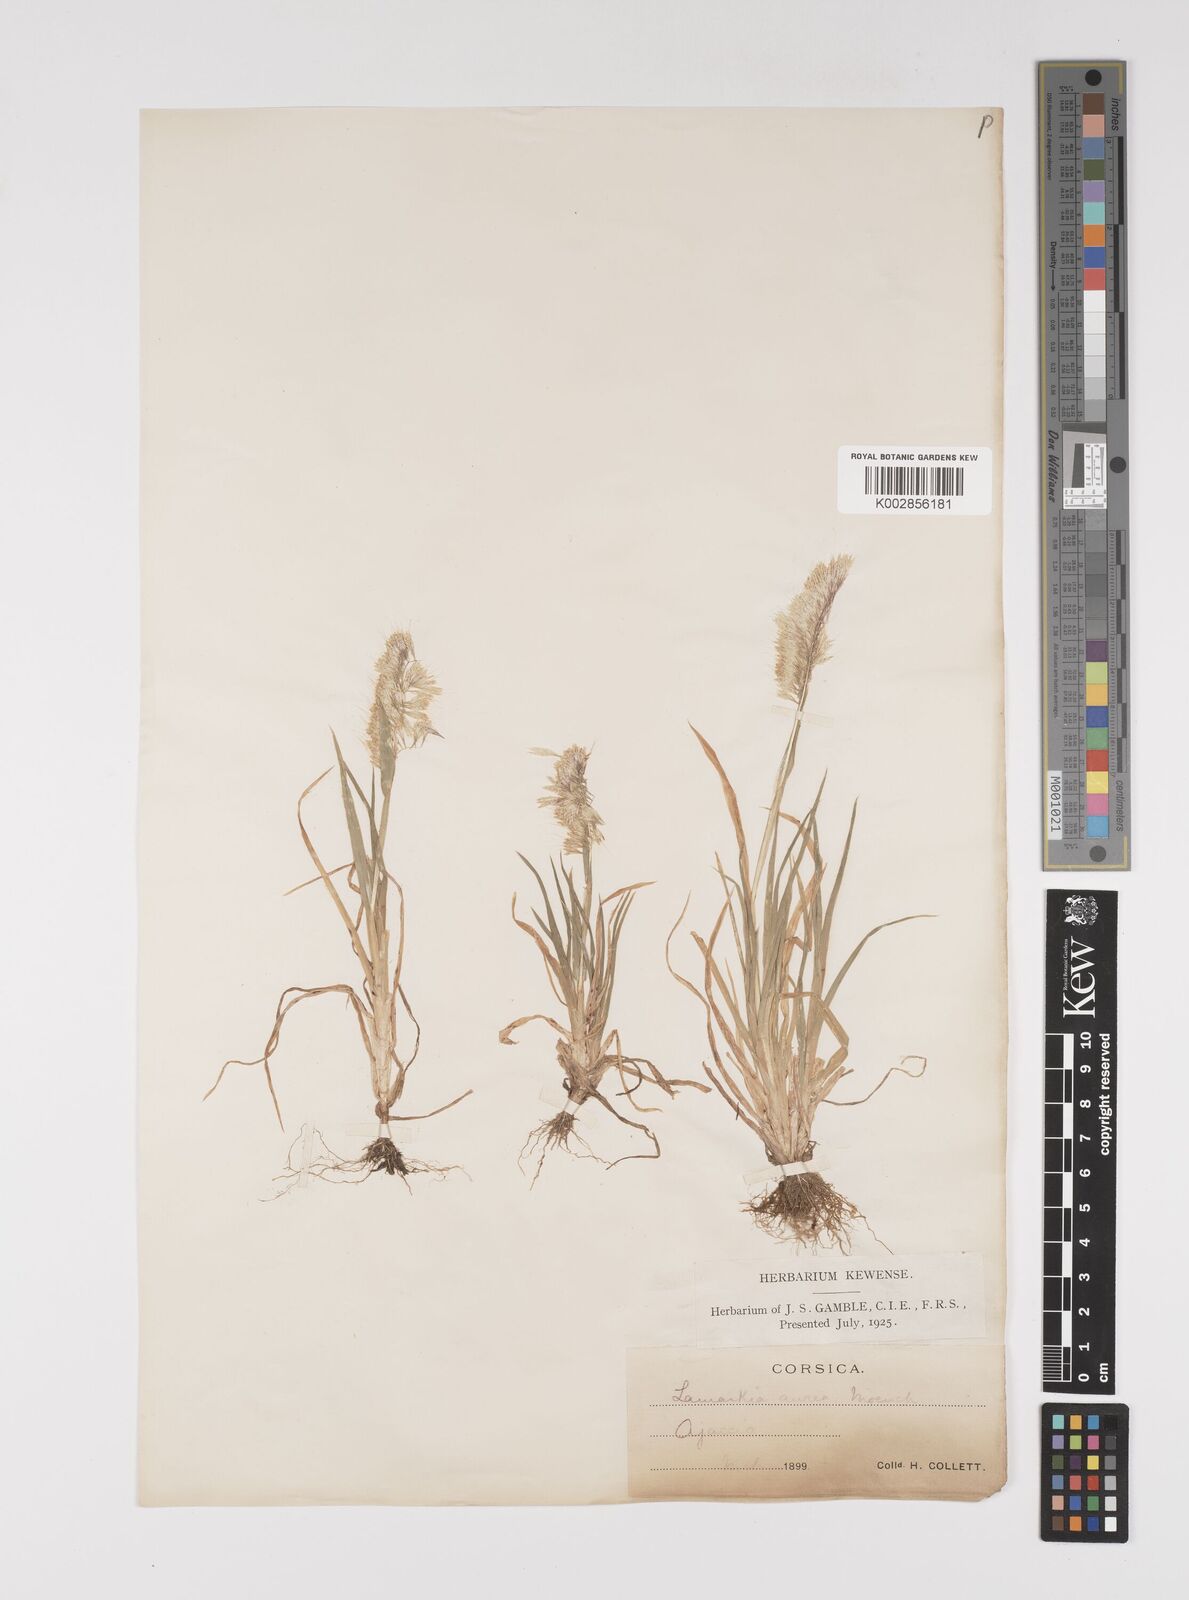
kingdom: Plantae
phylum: Tracheophyta
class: Liliopsida
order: Poales
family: Poaceae
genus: Lamarckia
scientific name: Lamarckia aurea
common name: Golden dog's-tail
